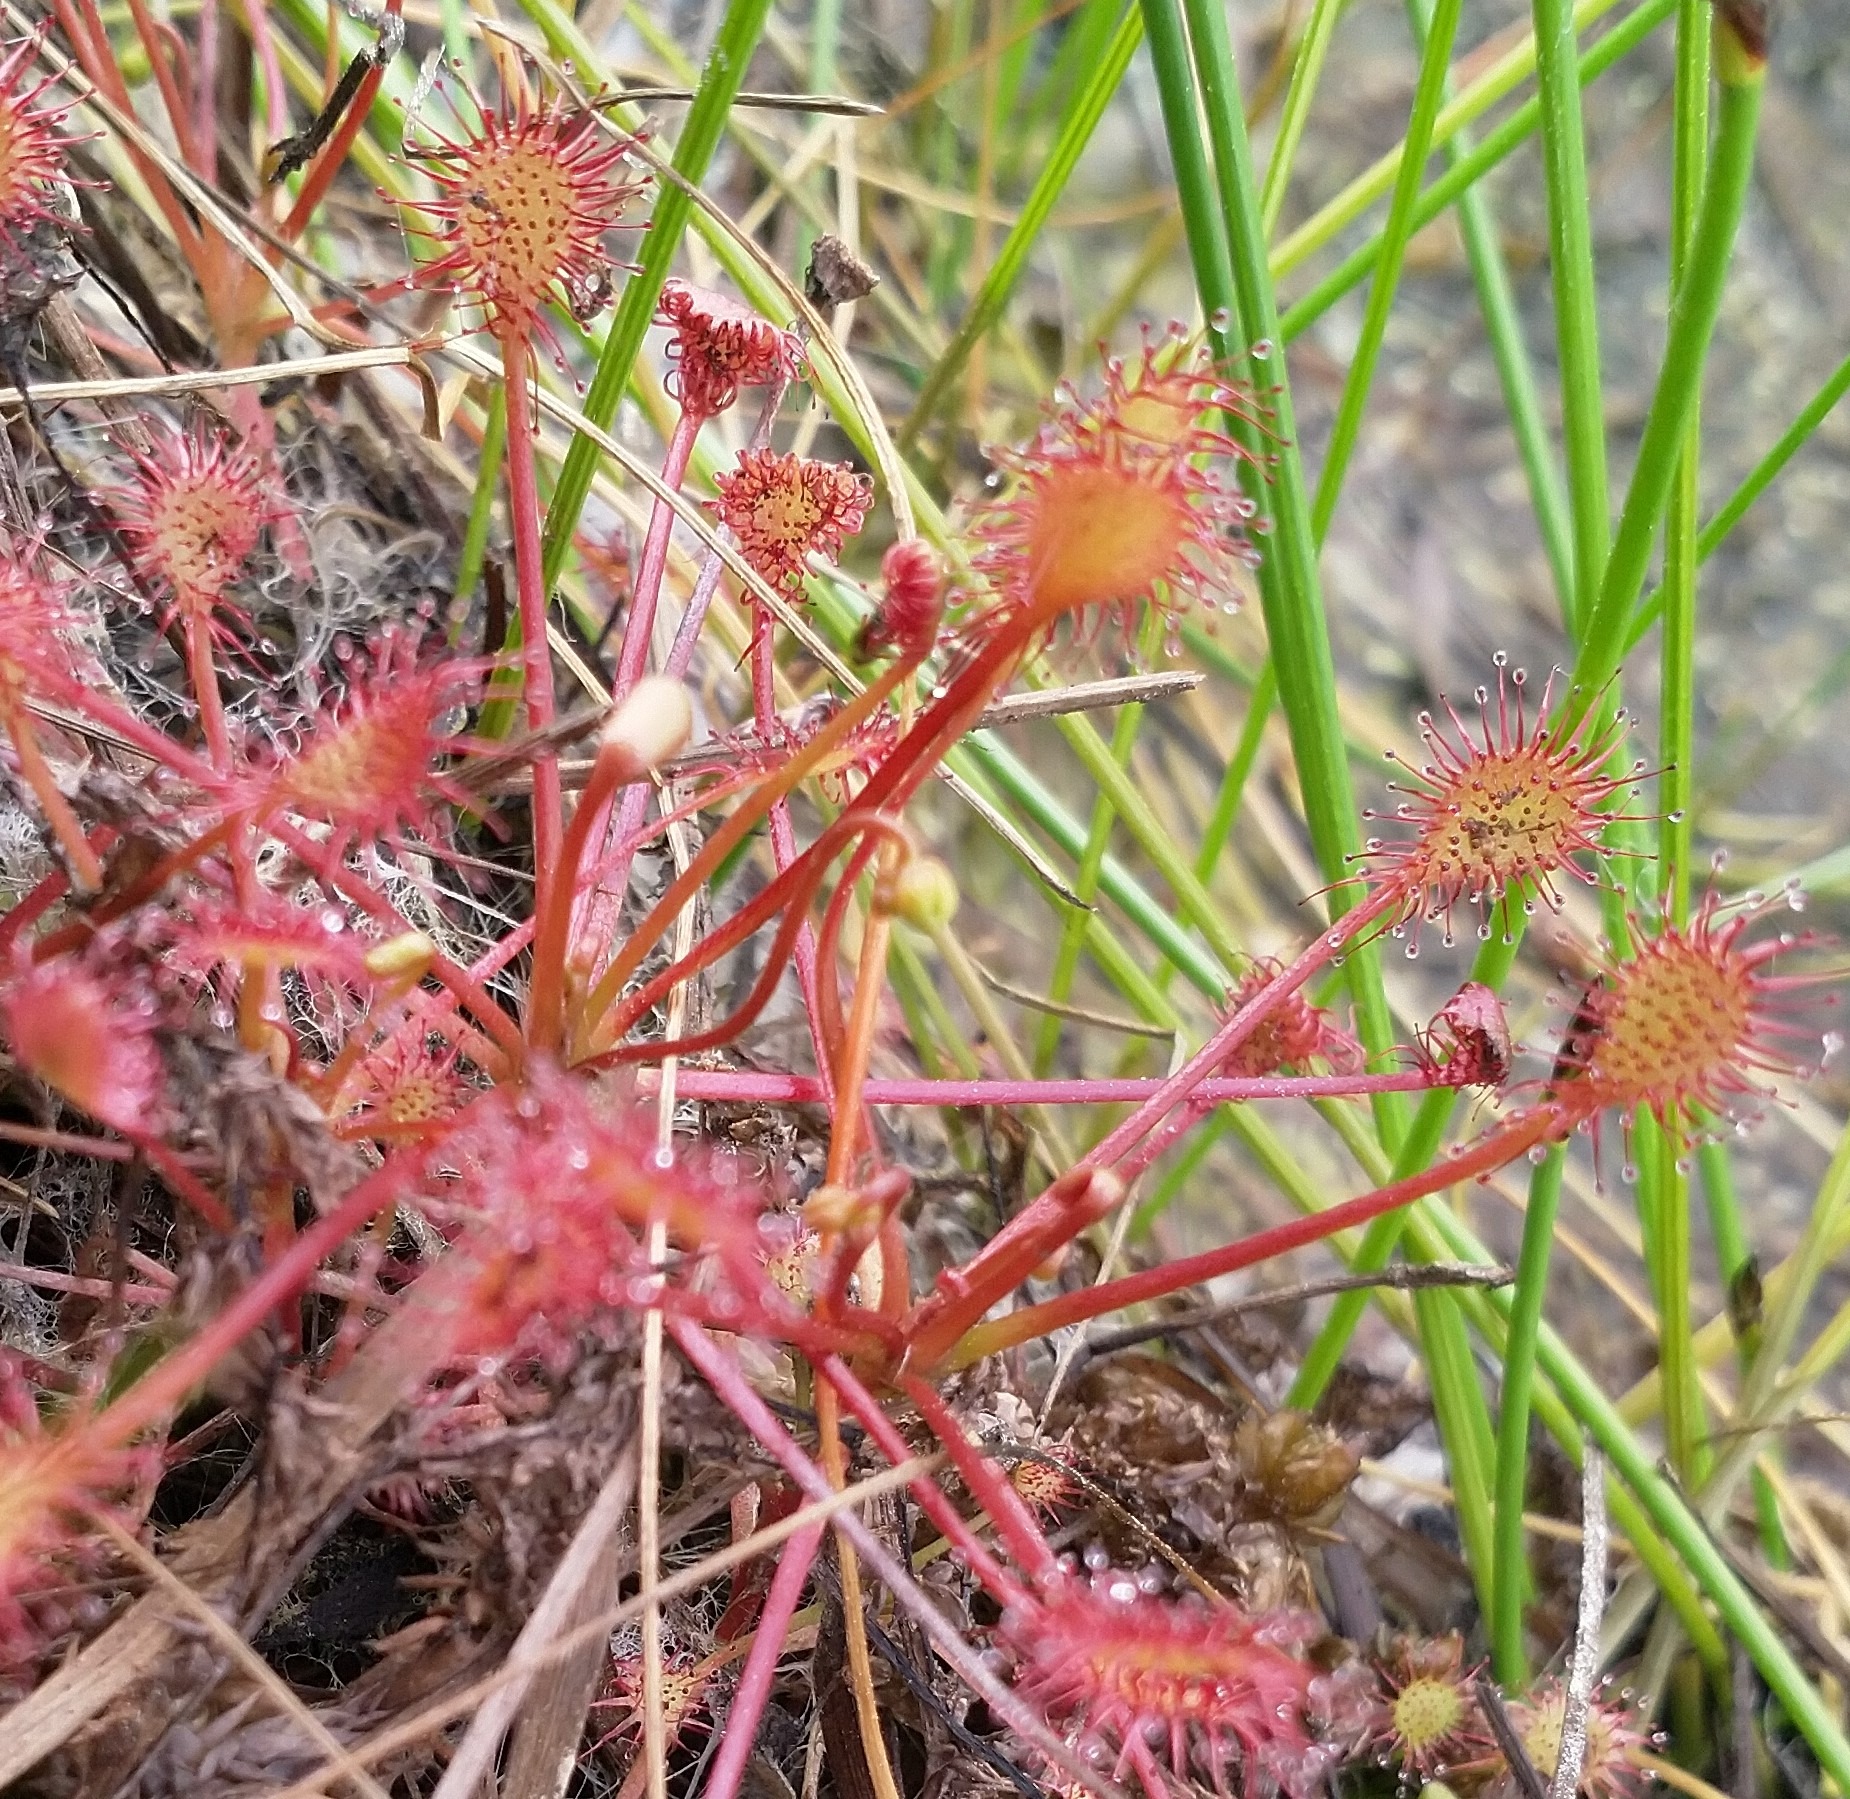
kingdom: Plantae
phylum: Tracheophyta
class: Magnoliopsida
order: Caryophyllales
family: Droseraceae
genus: Drosera
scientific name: Drosera intermedia
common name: Liden soldug
